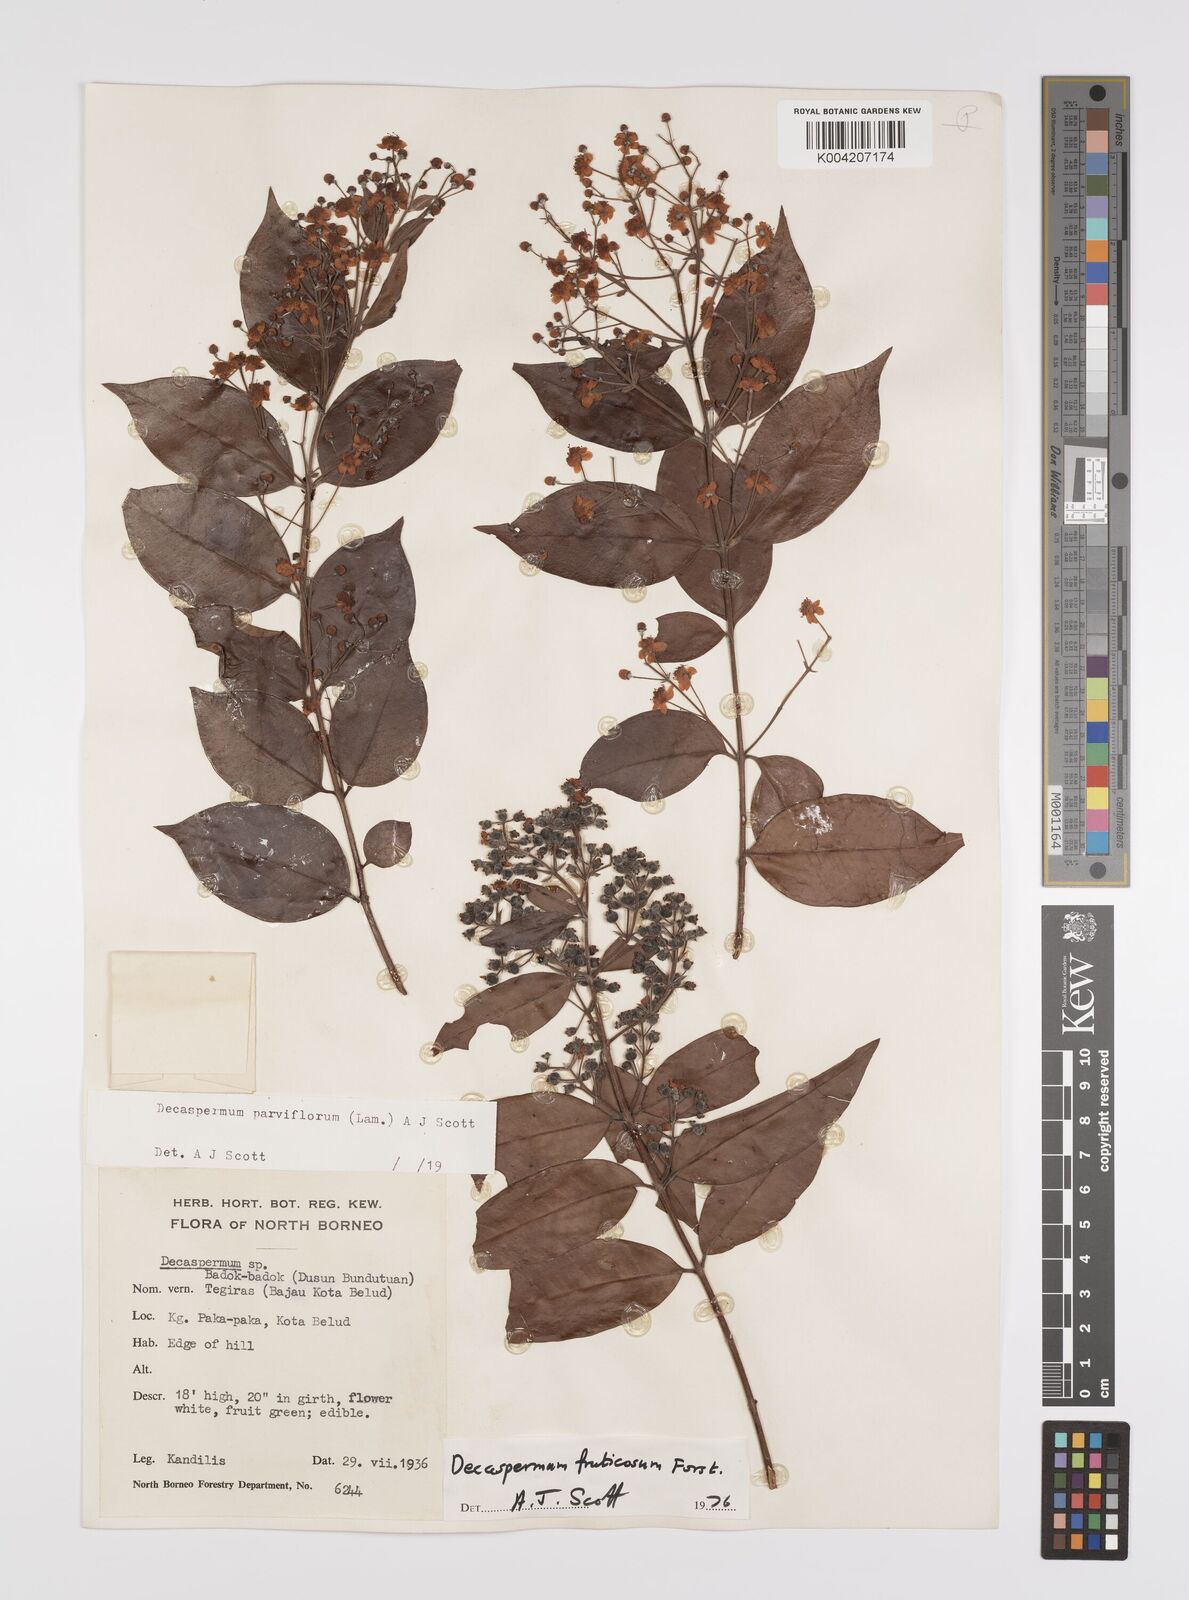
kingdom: Plantae
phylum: Tracheophyta
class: Magnoliopsida
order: Myrtales
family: Myrtaceae
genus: Decaspermum
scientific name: Decaspermum fruticosum
